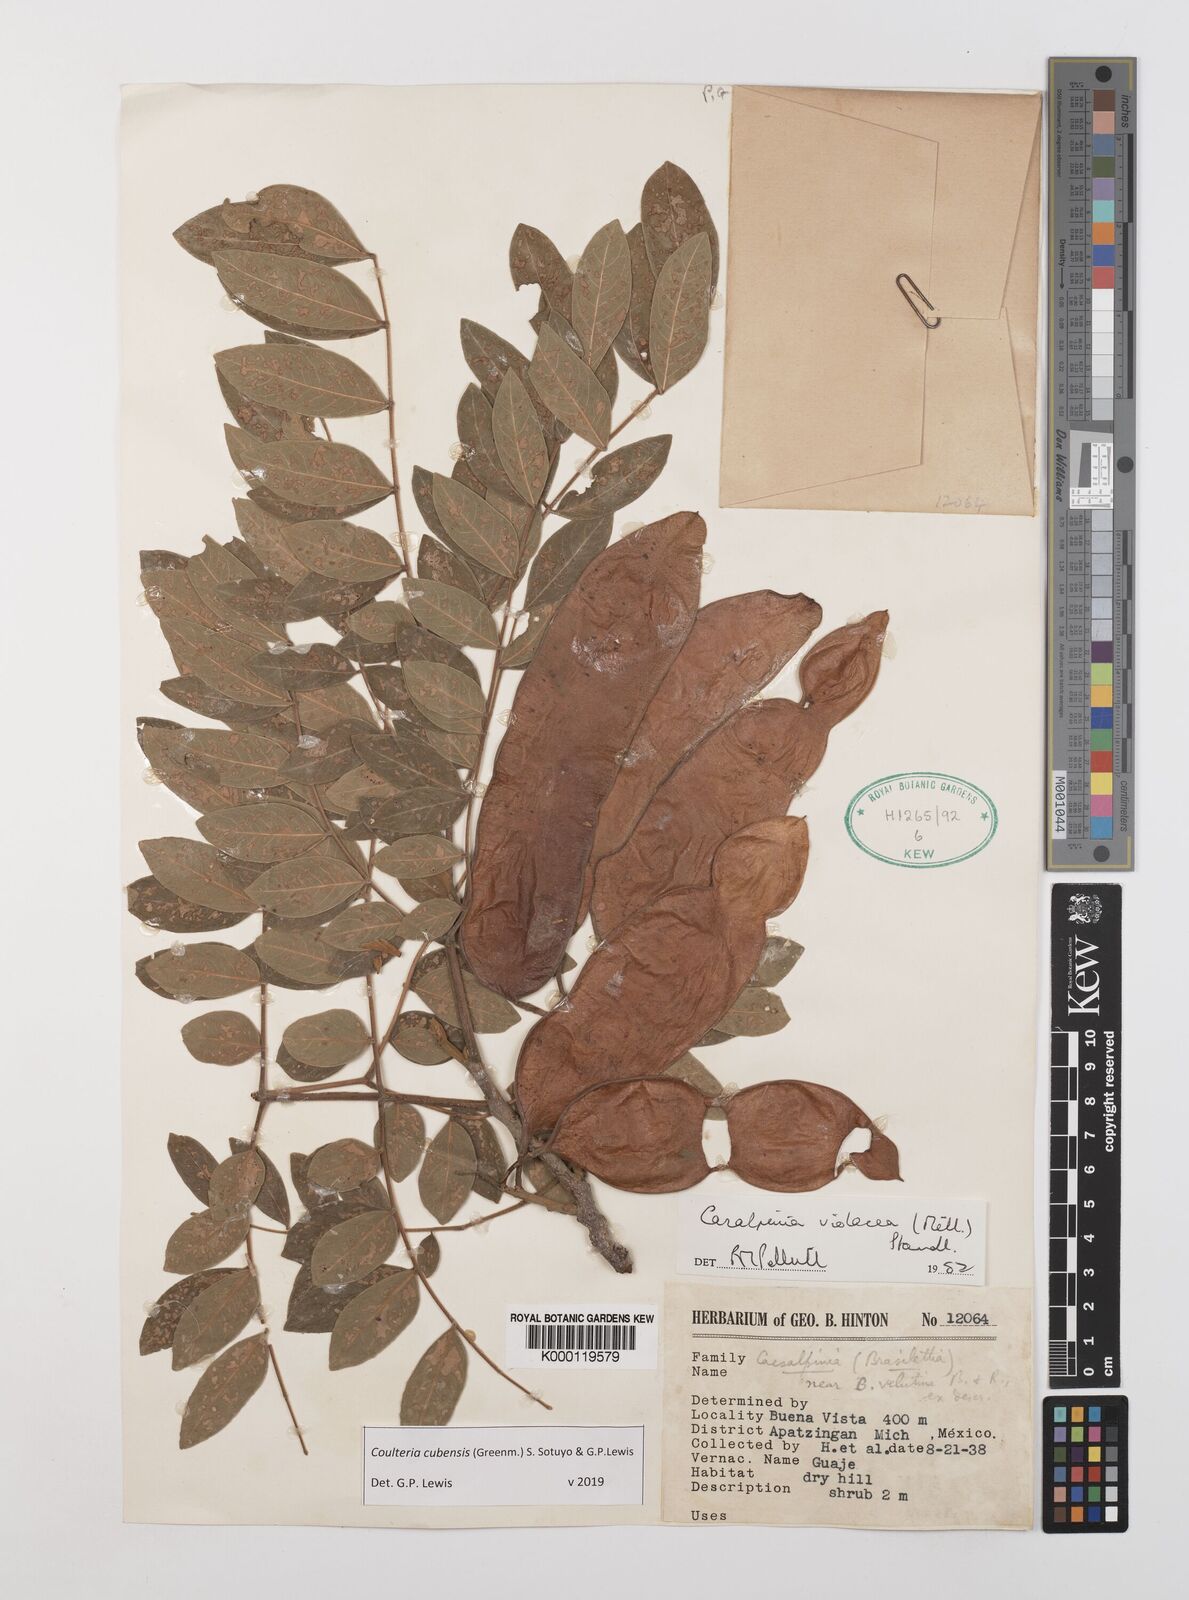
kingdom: Plantae
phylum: Tracheophyta
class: Magnoliopsida
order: Fabales
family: Fabaceae
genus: Coulteria
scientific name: Coulteria cubensis
